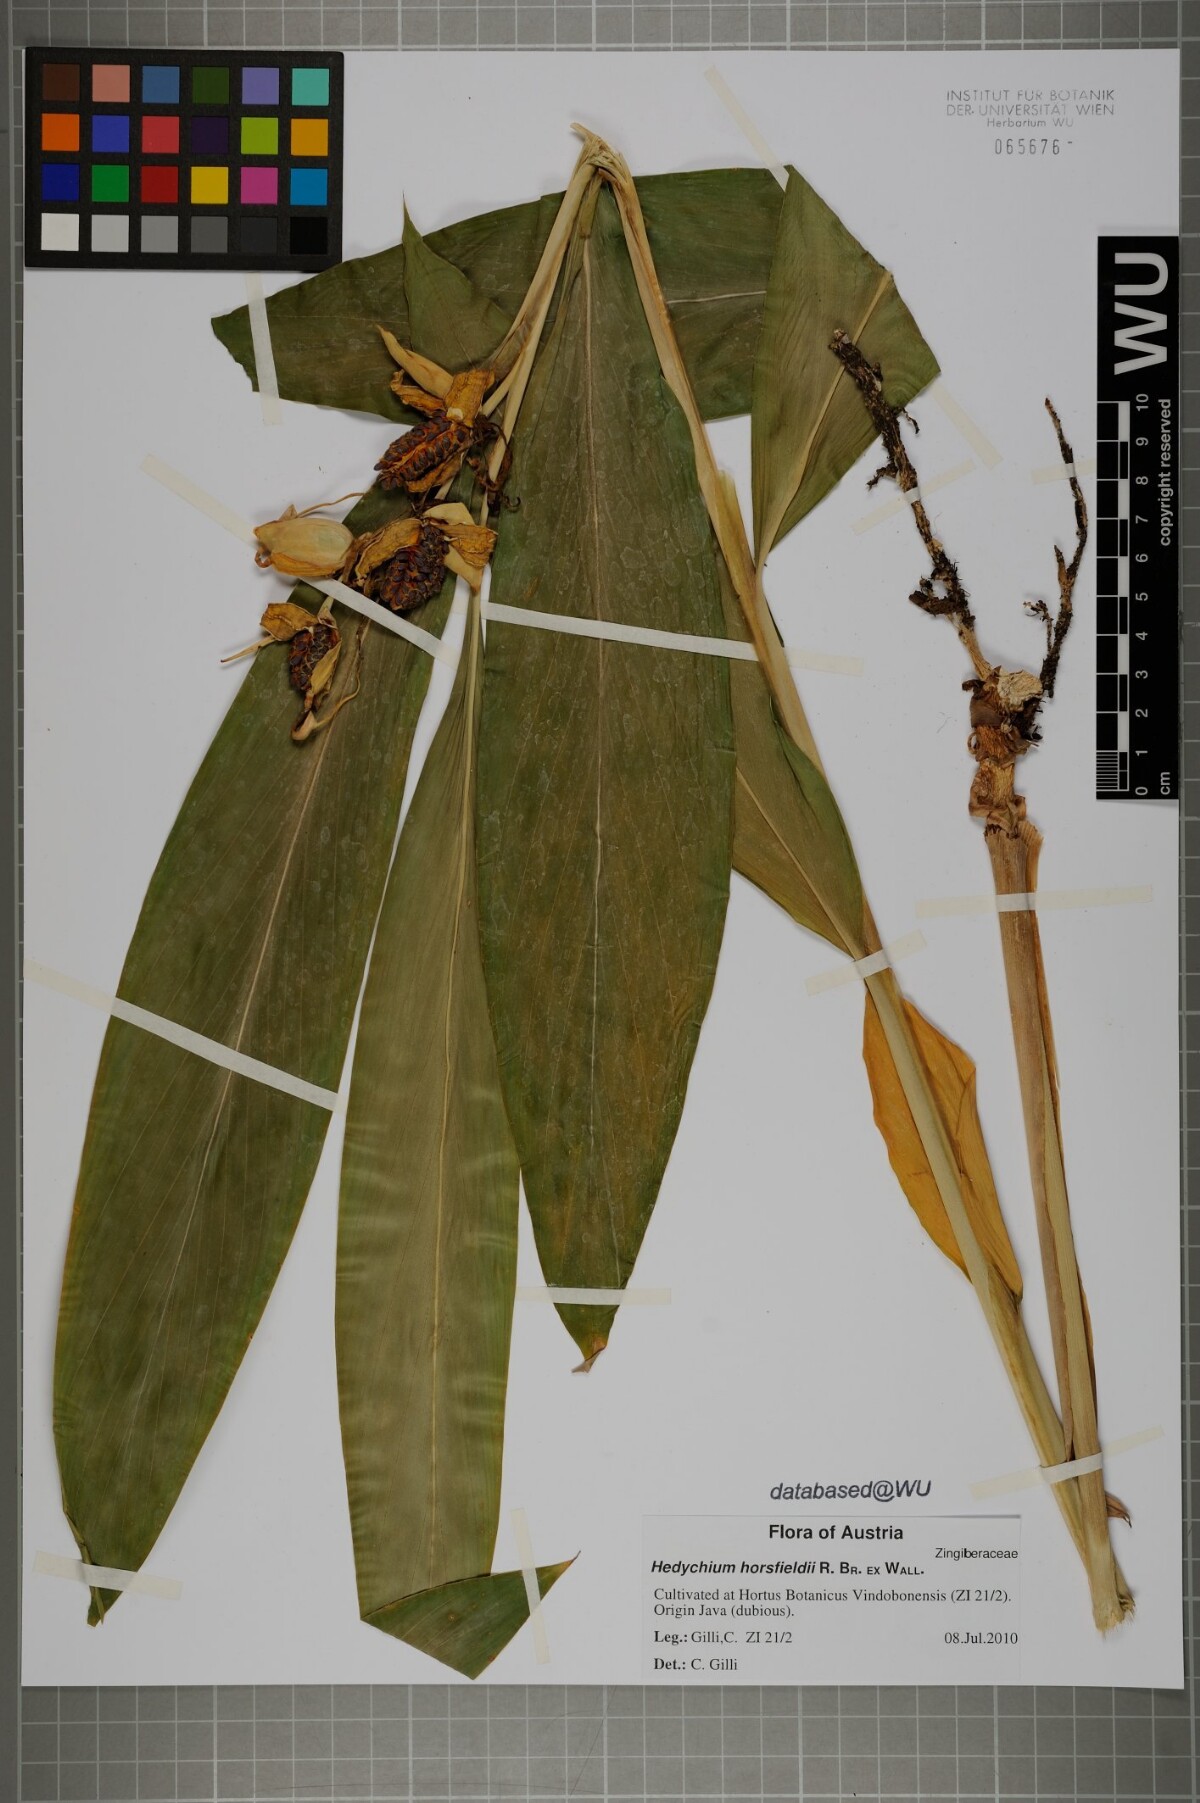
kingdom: Plantae
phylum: Tracheophyta
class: Liliopsida
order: Zingiberales
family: Zingiberaceae
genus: Hedychium
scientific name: Hedychium horsfieldii
